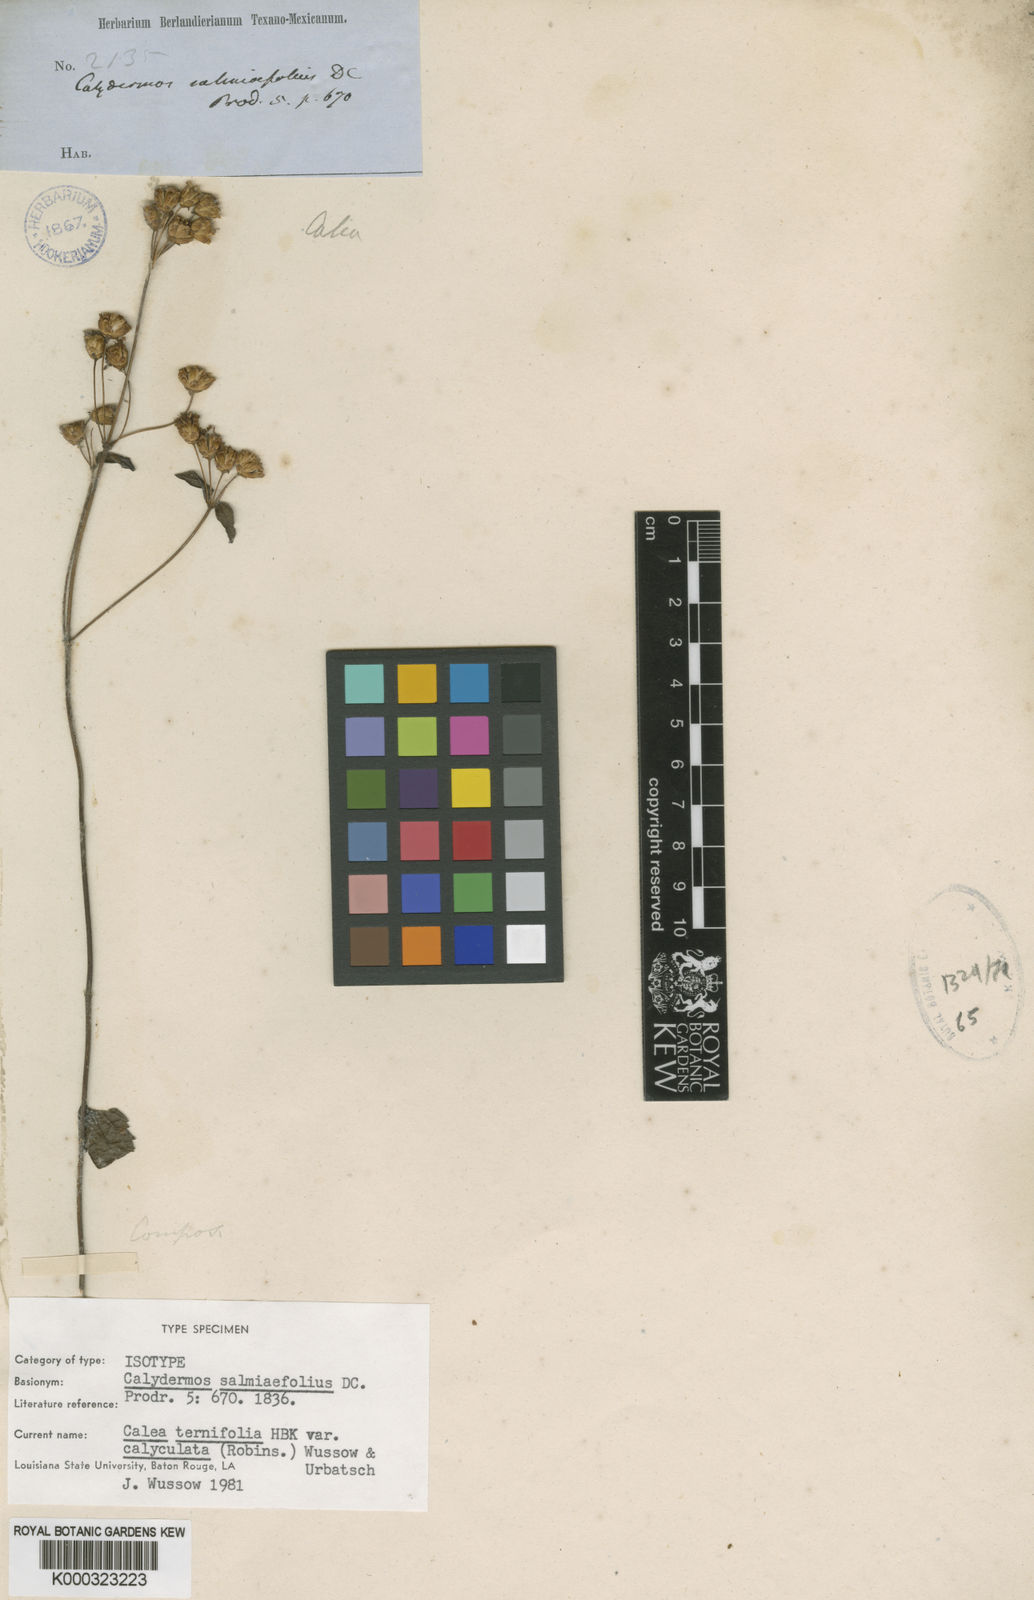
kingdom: Plantae
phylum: Tracheophyta
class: Magnoliopsida
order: Asterales
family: Asteraceae
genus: Calea
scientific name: Calea ternifolia
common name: Mexican calea
